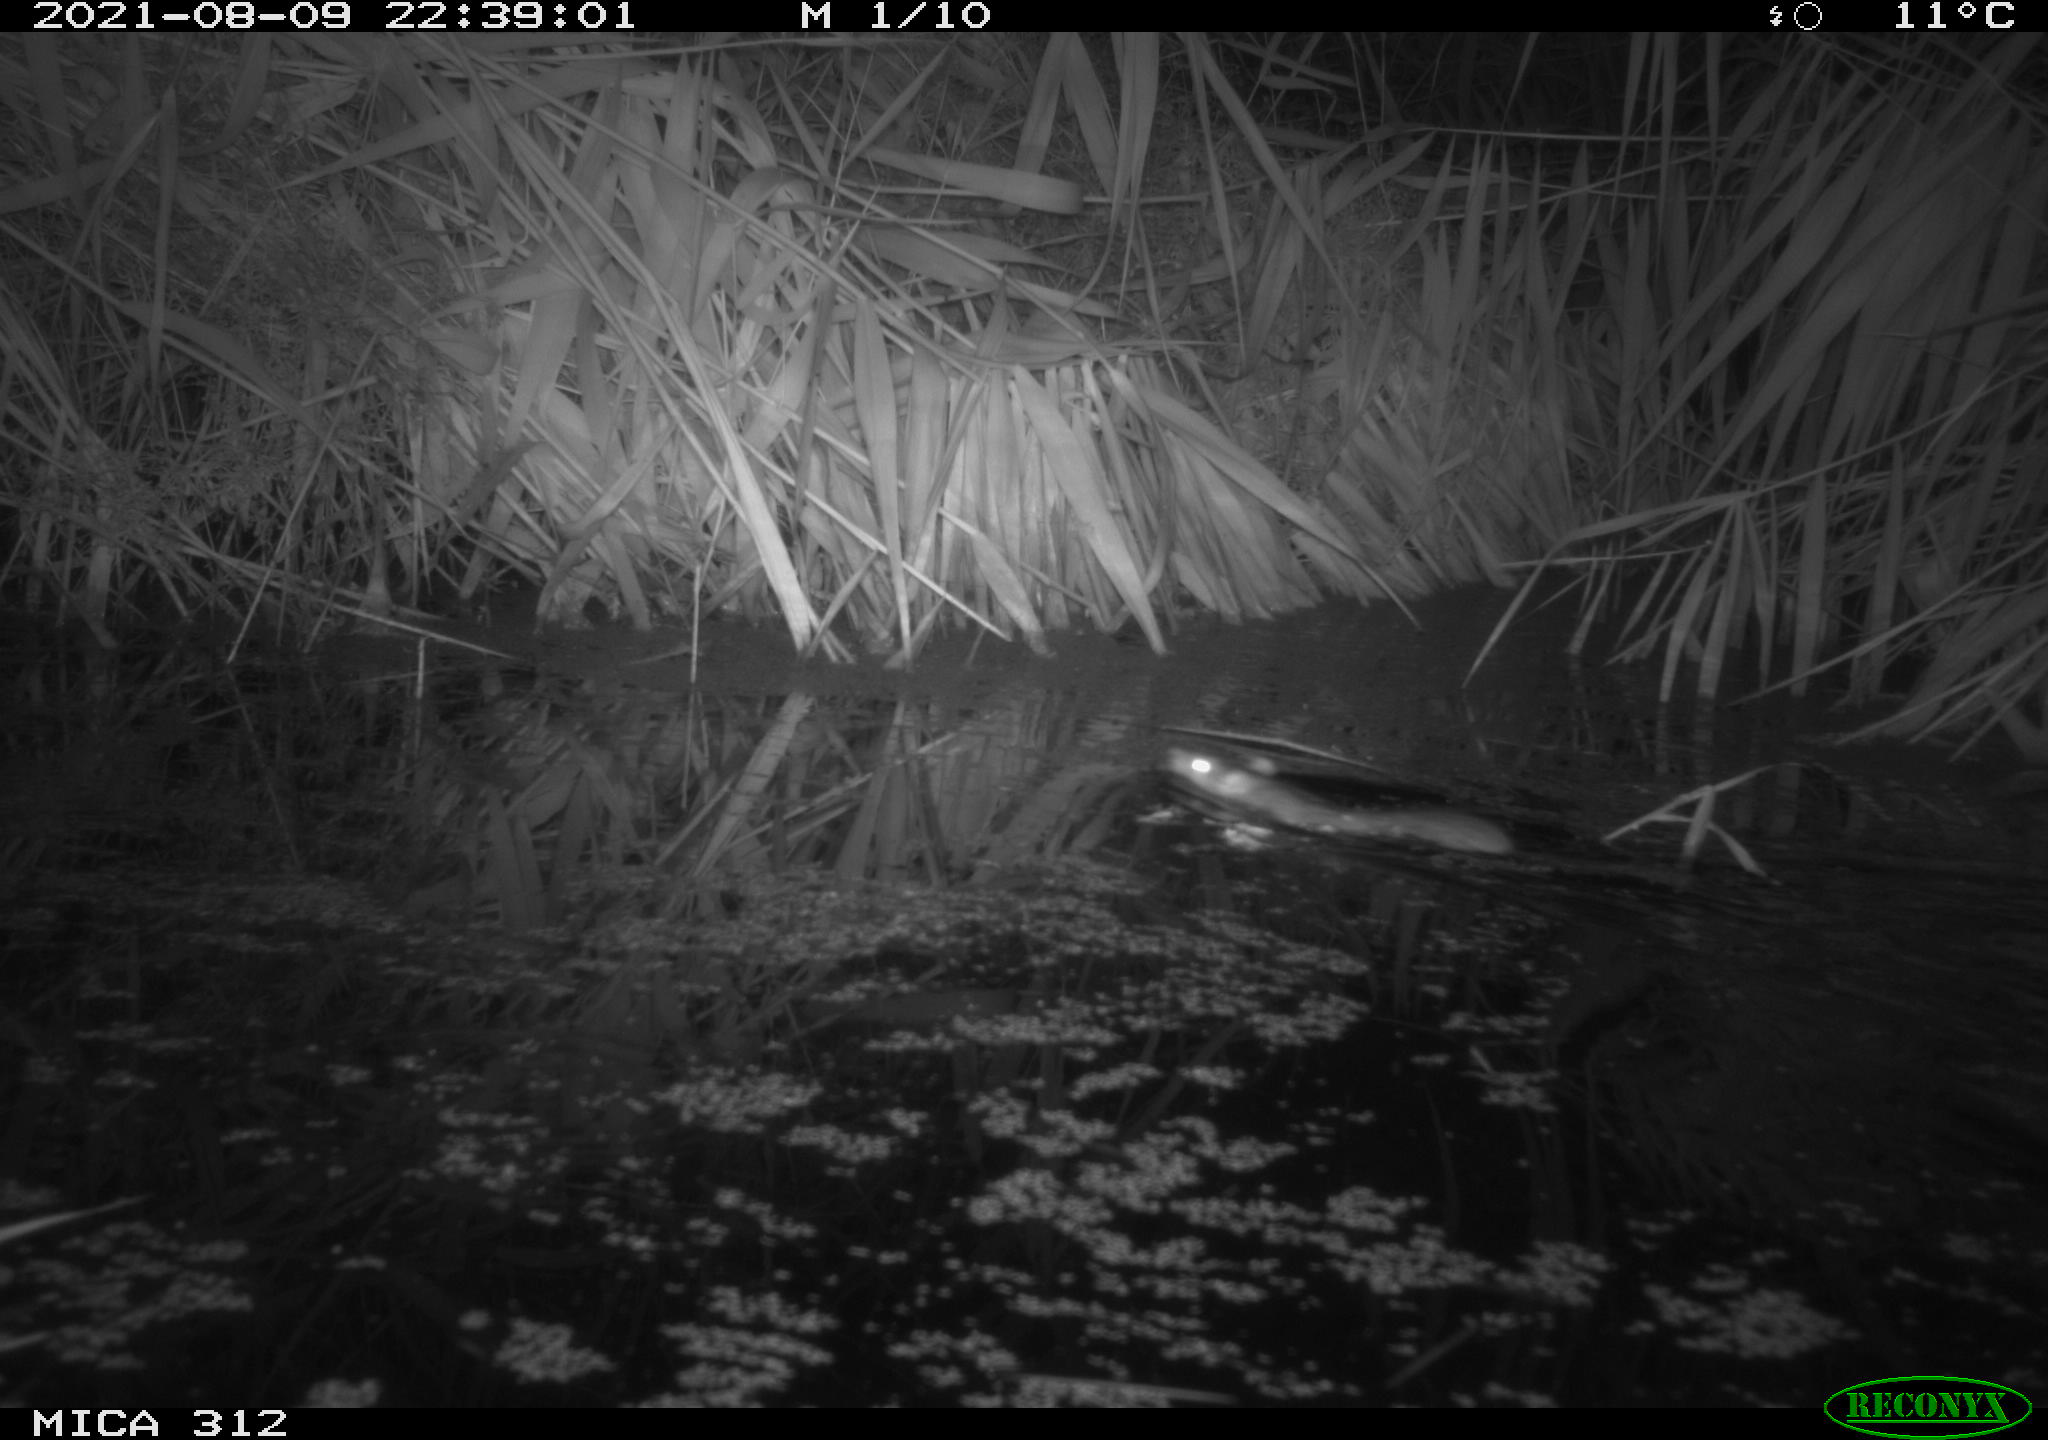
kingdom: Animalia
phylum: Chordata
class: Mammalia
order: Rodentia
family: Muridae
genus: Rattus
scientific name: Rattus norvegicus
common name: Brown rat
